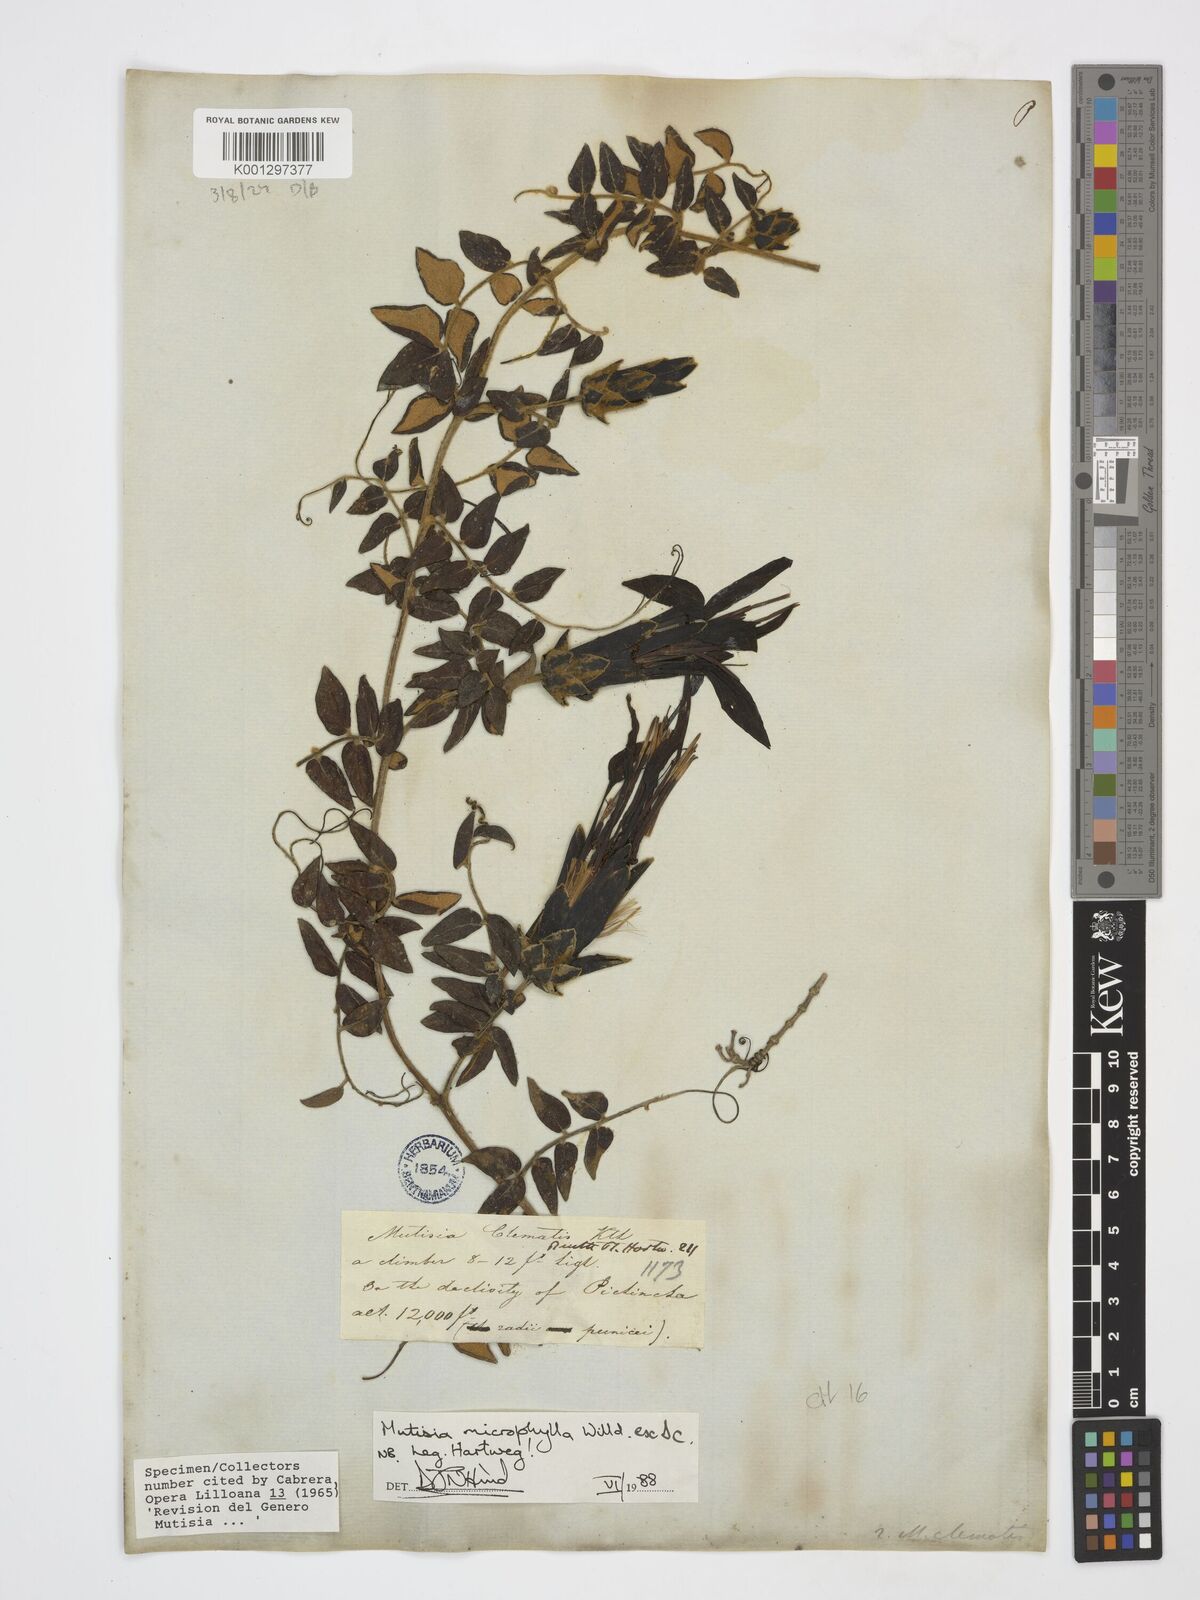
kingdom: Plantae
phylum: Tracheophyta
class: Magnoliopsida
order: Asterales
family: Asteraceae
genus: Mutisia
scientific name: Mutisia microphylla
